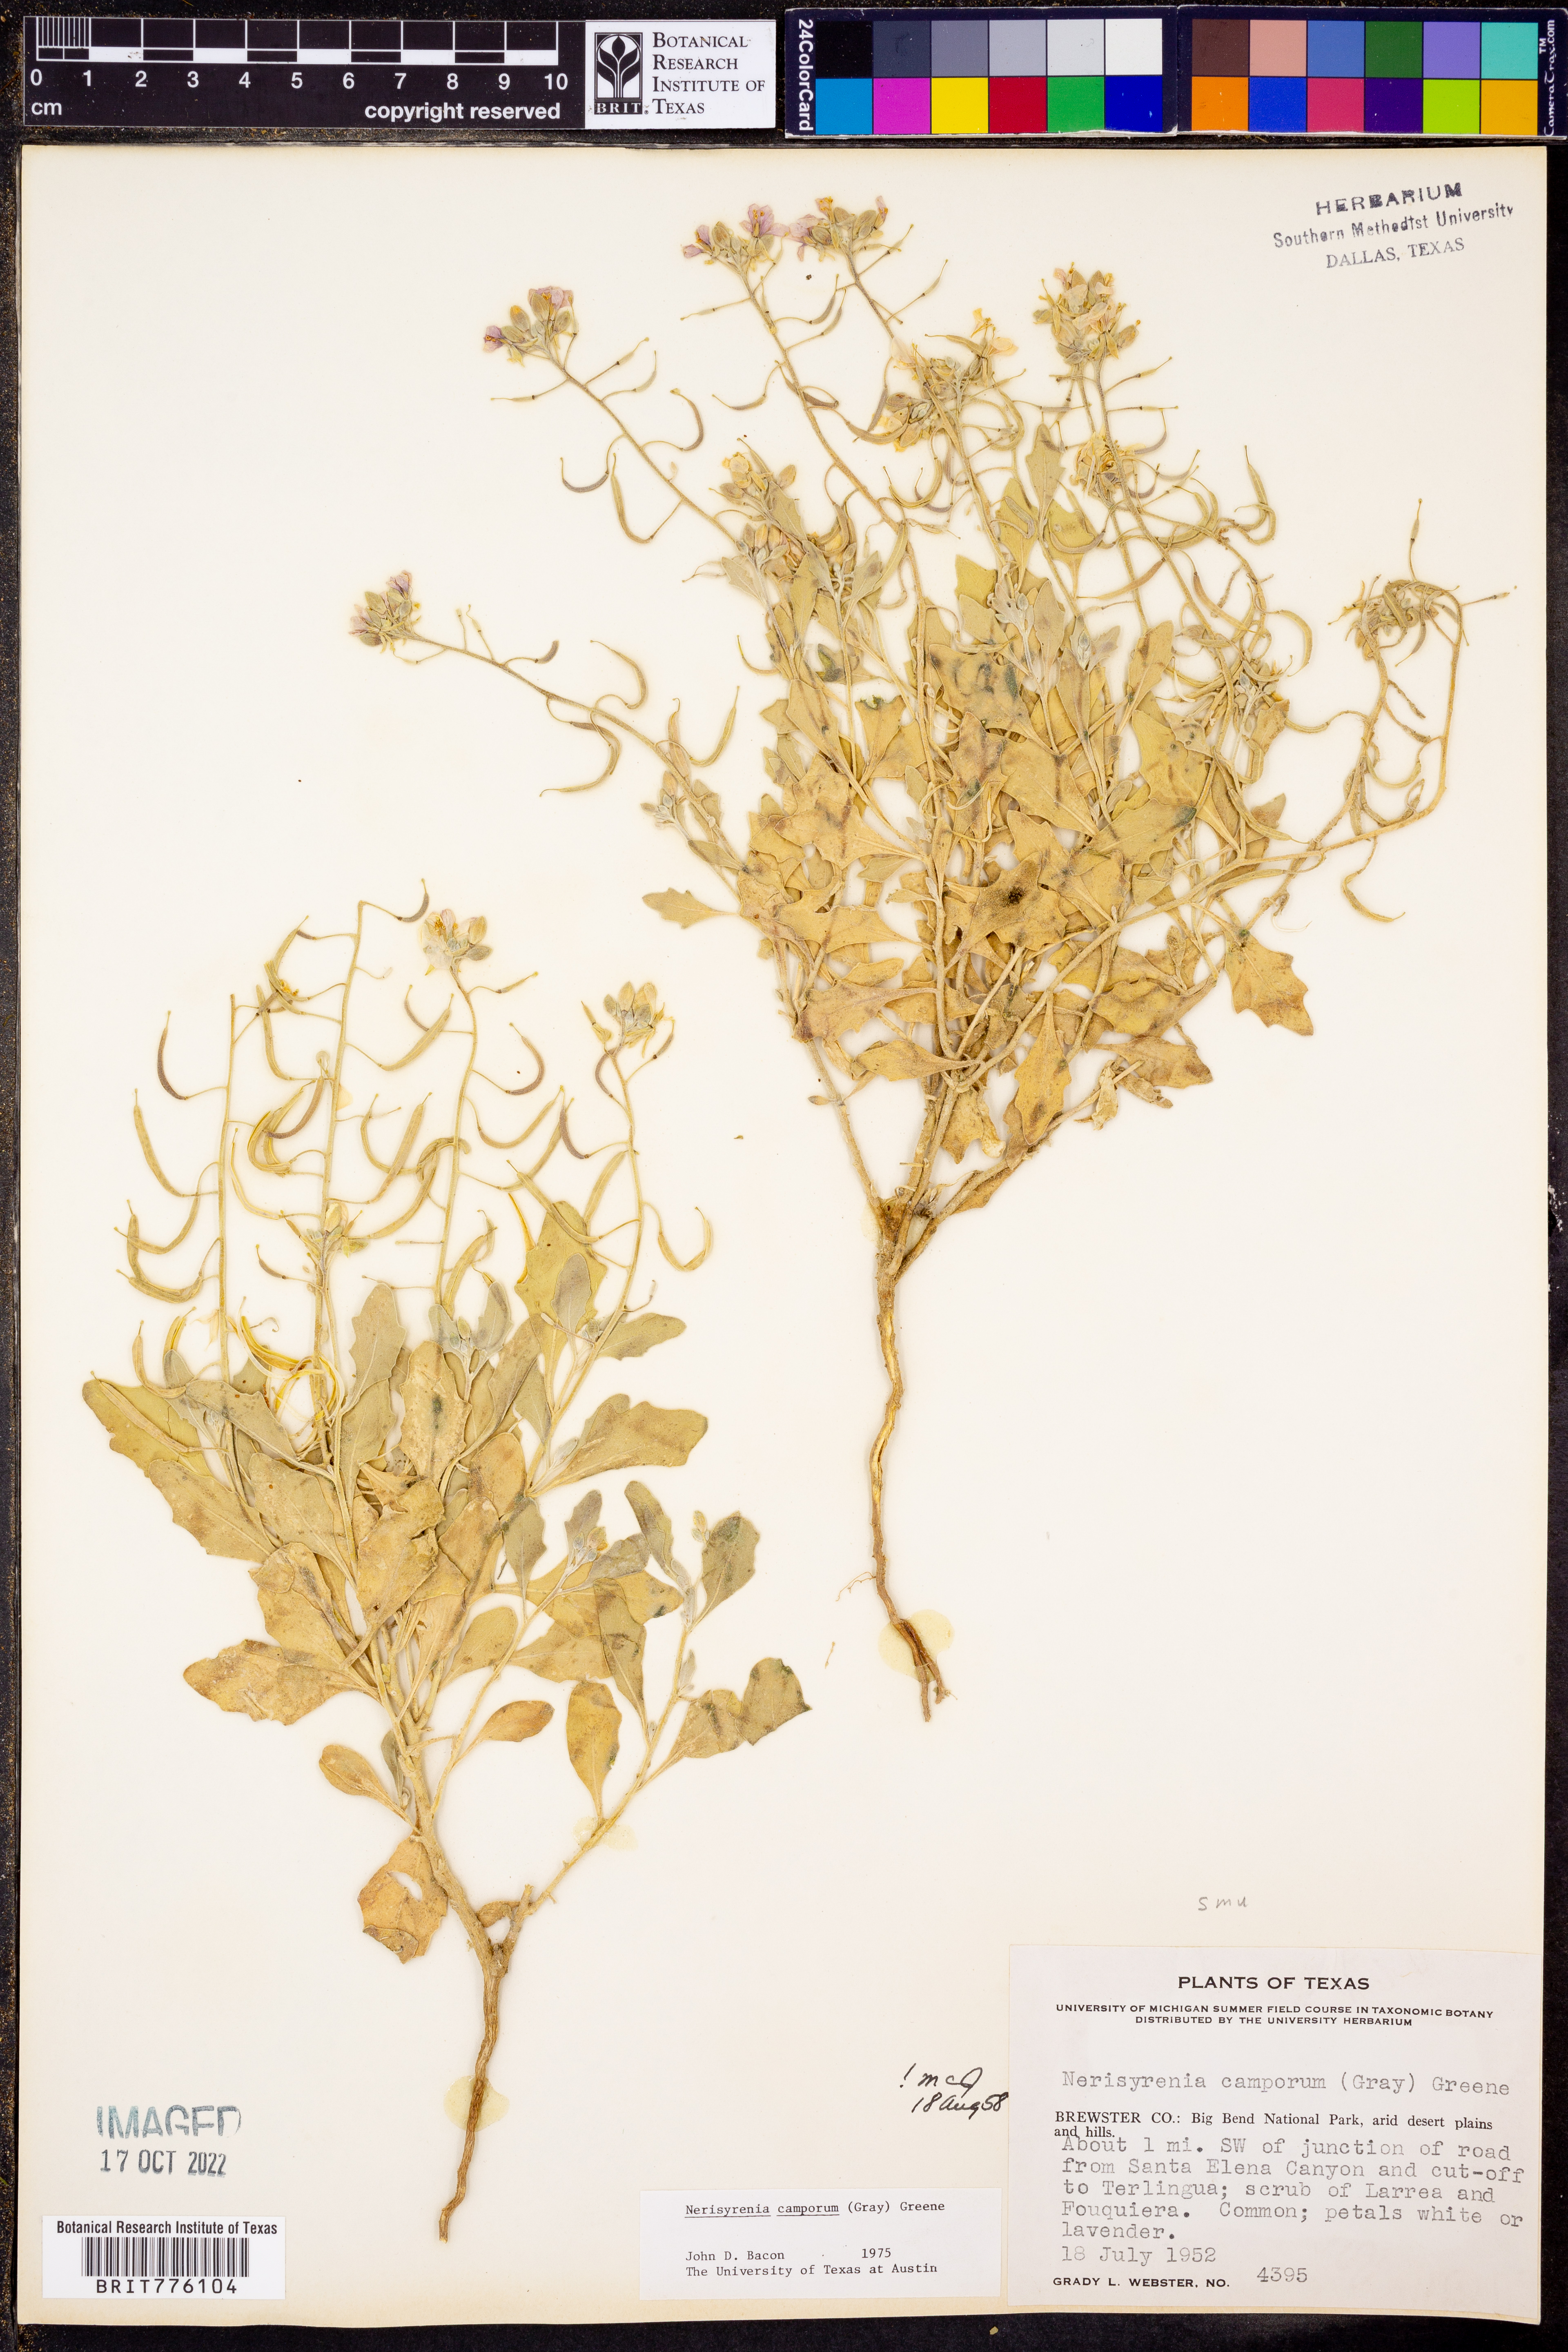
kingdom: Plantae
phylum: Tracheophyta
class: Magnoliopsida
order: Brassicales
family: Brassicaceae
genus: Nerisyrenia
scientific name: Nerisyrenia camporum
